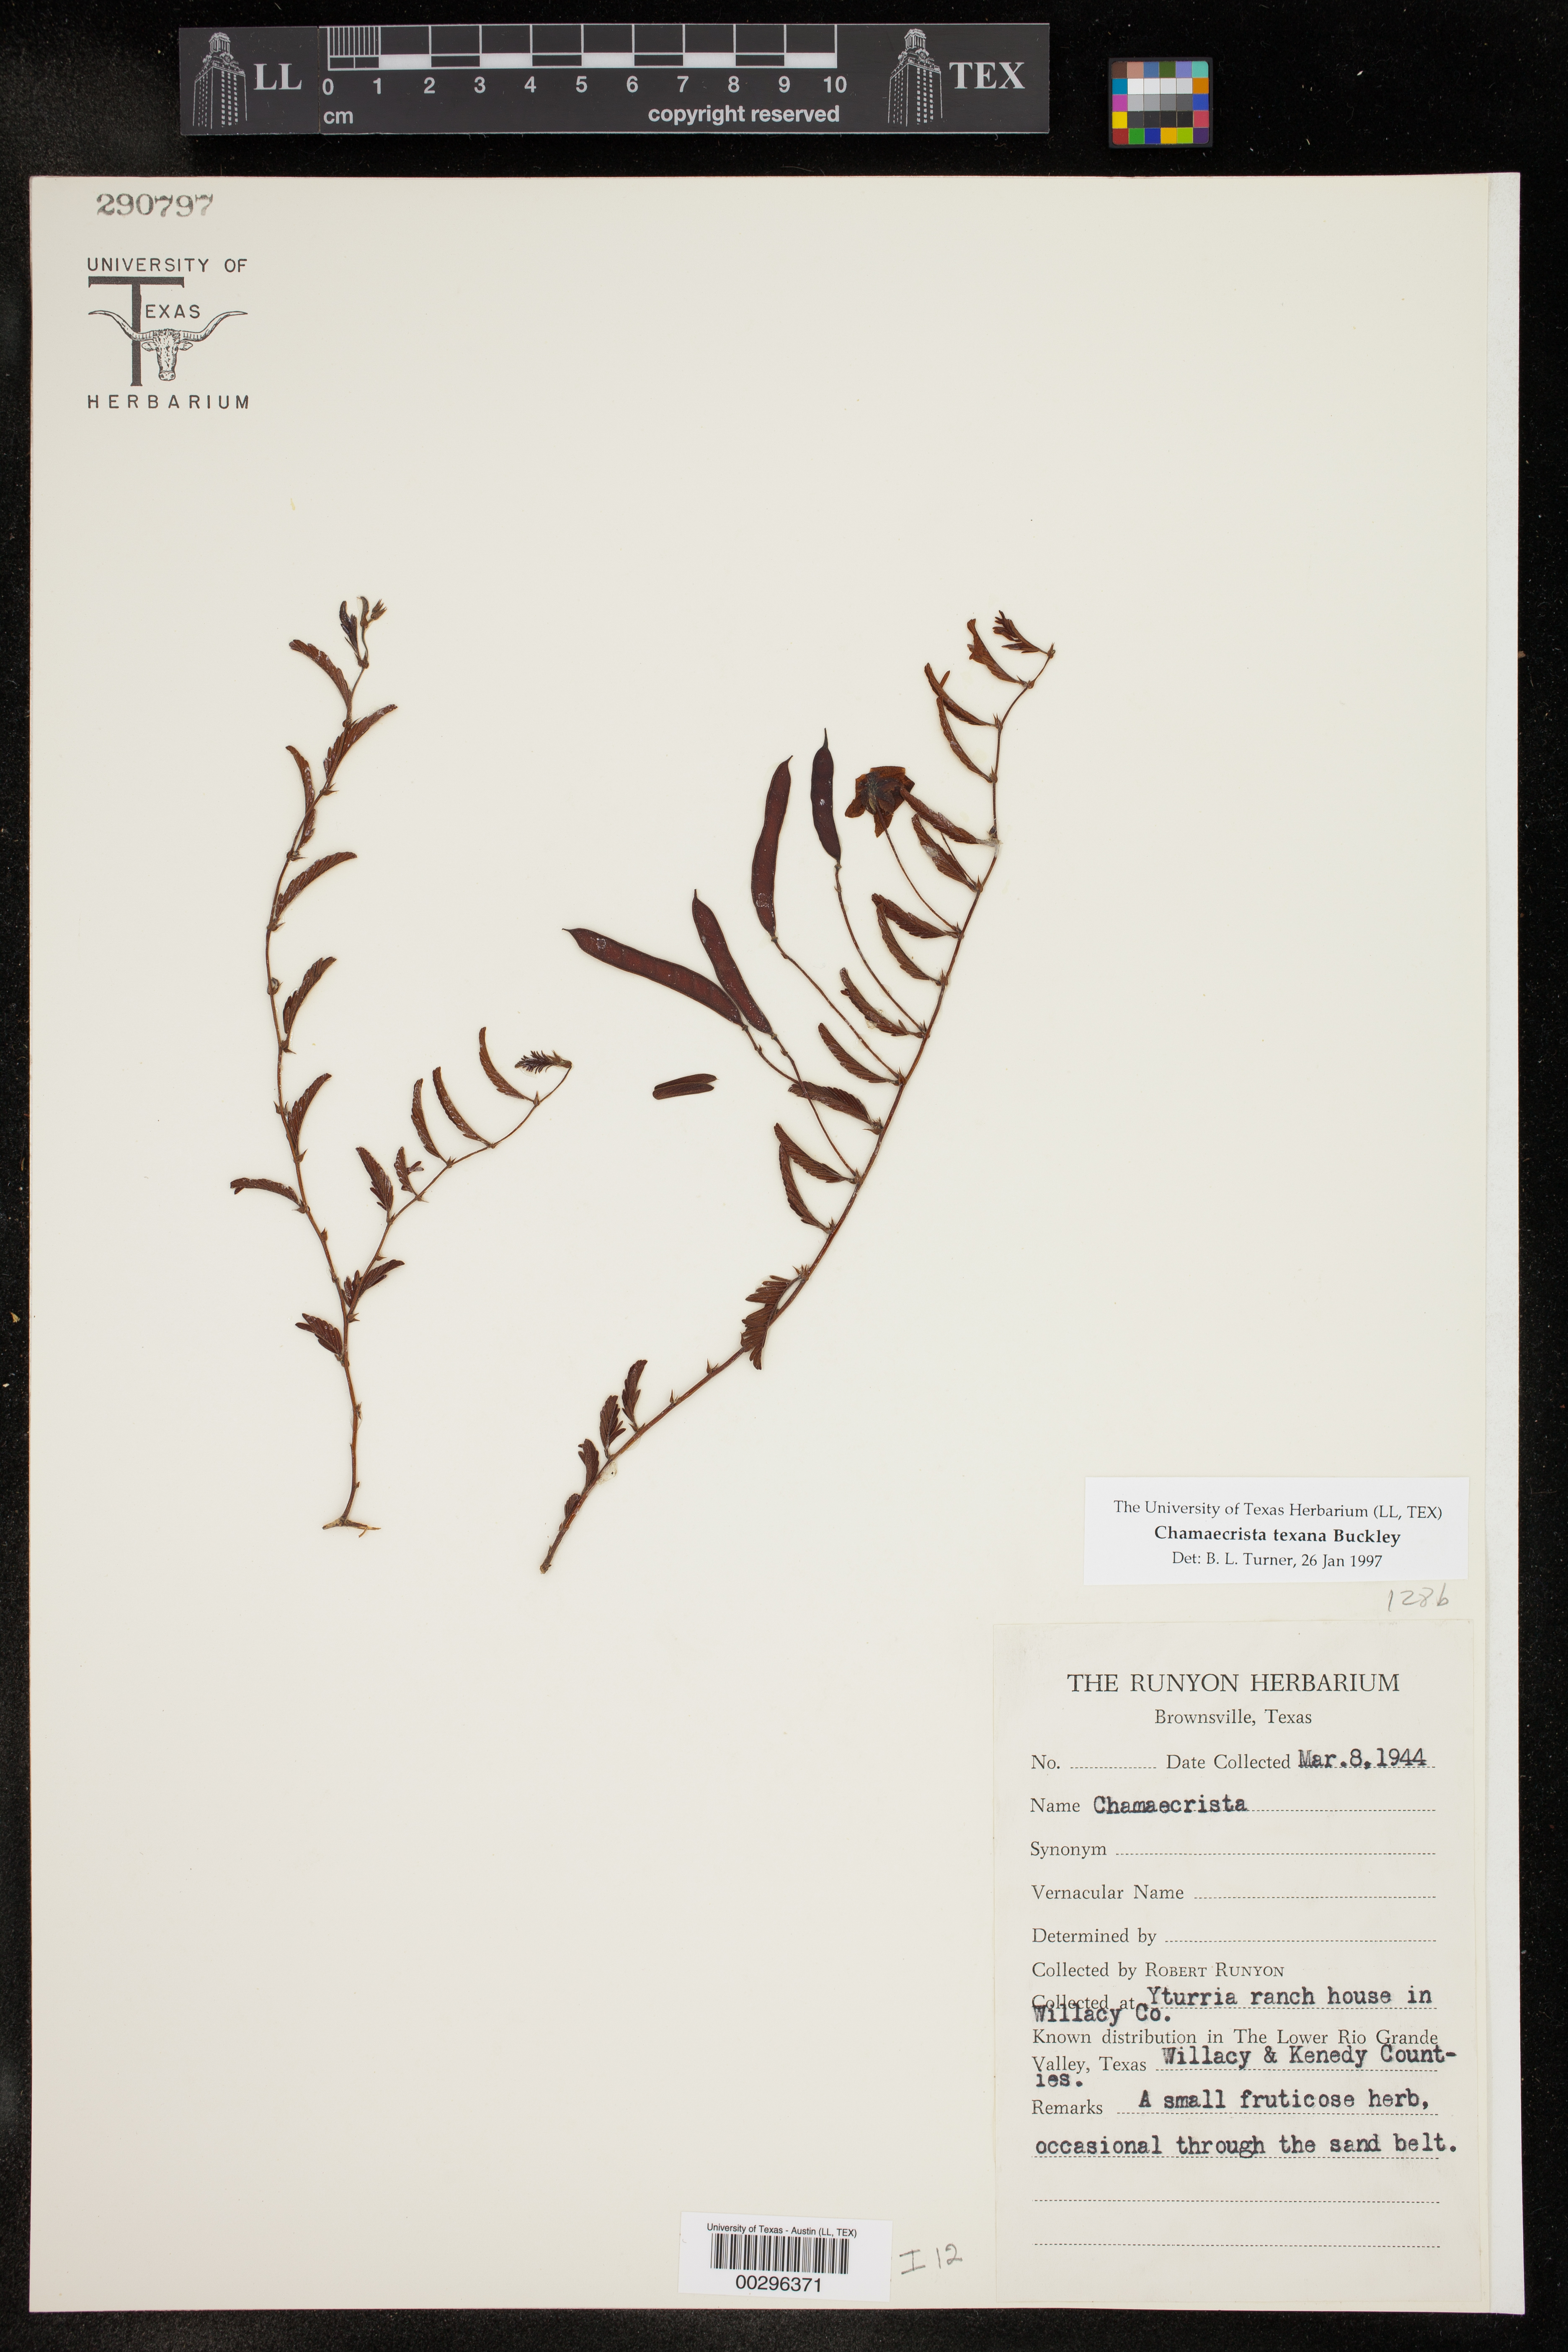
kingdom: Plantae
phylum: Tracheophyta
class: Magnoliopsida
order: Fabales
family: Fabaceae
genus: Chamaecrista
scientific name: Chamaecrista flexuosa
